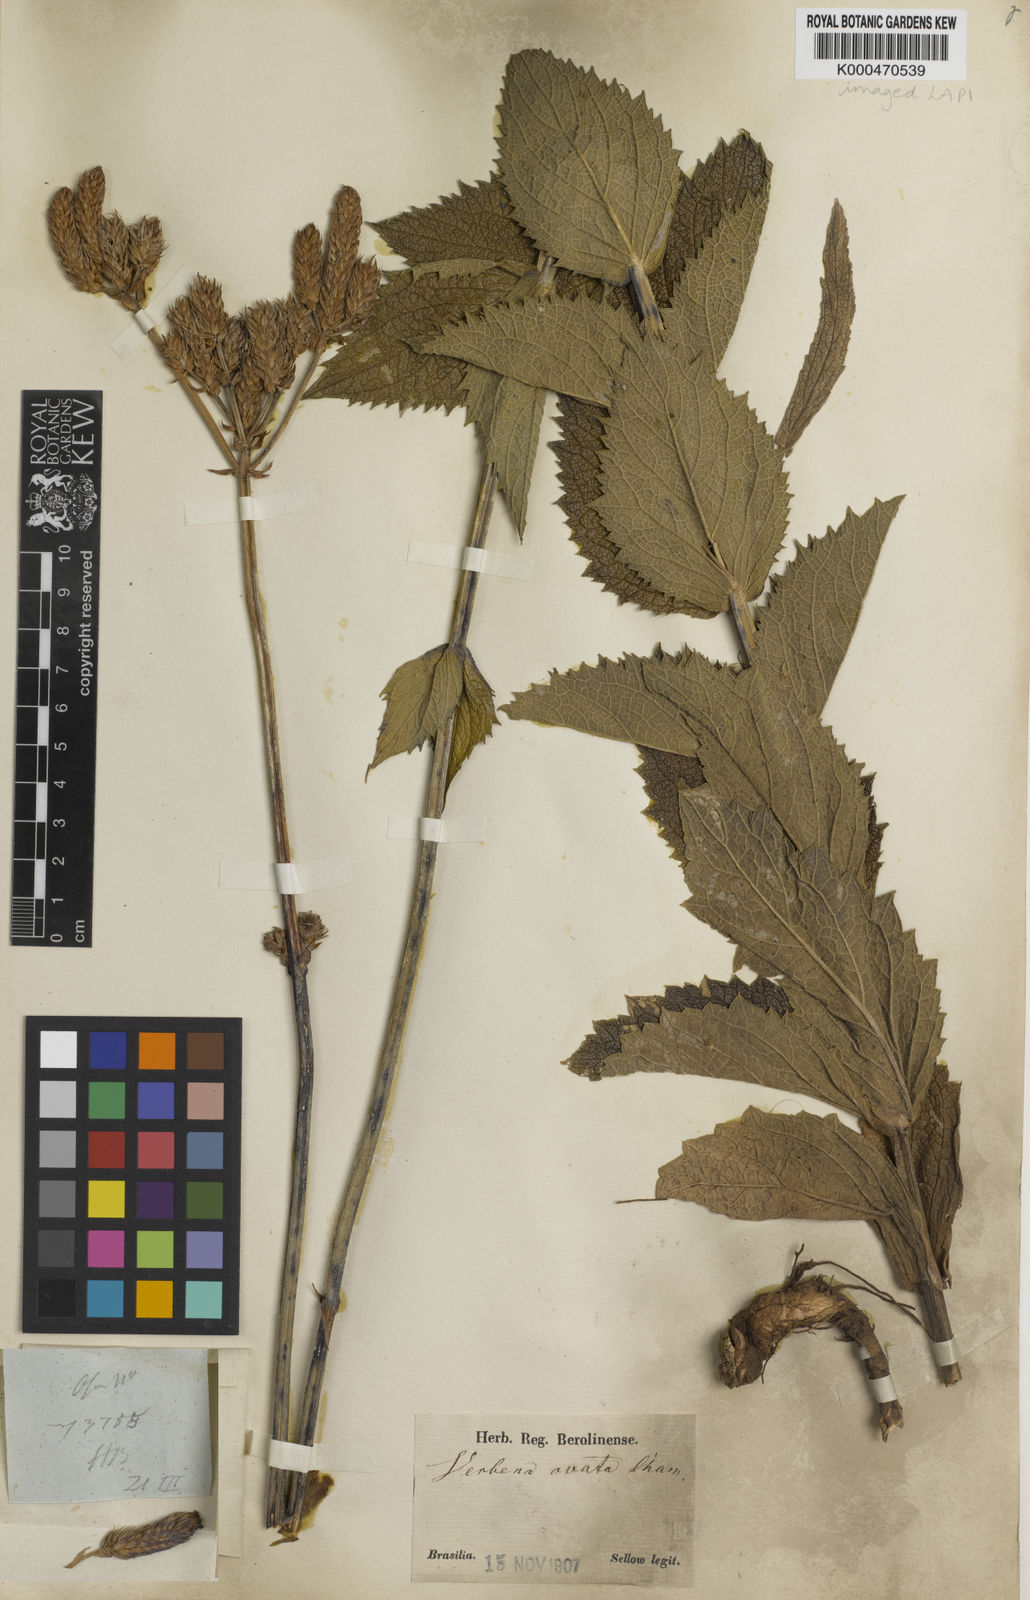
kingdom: Plantae
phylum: Tracheophyta
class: Magnoliopsida
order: Lamiales
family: Verbenaceae
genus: Verbena
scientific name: Verbena ovata
